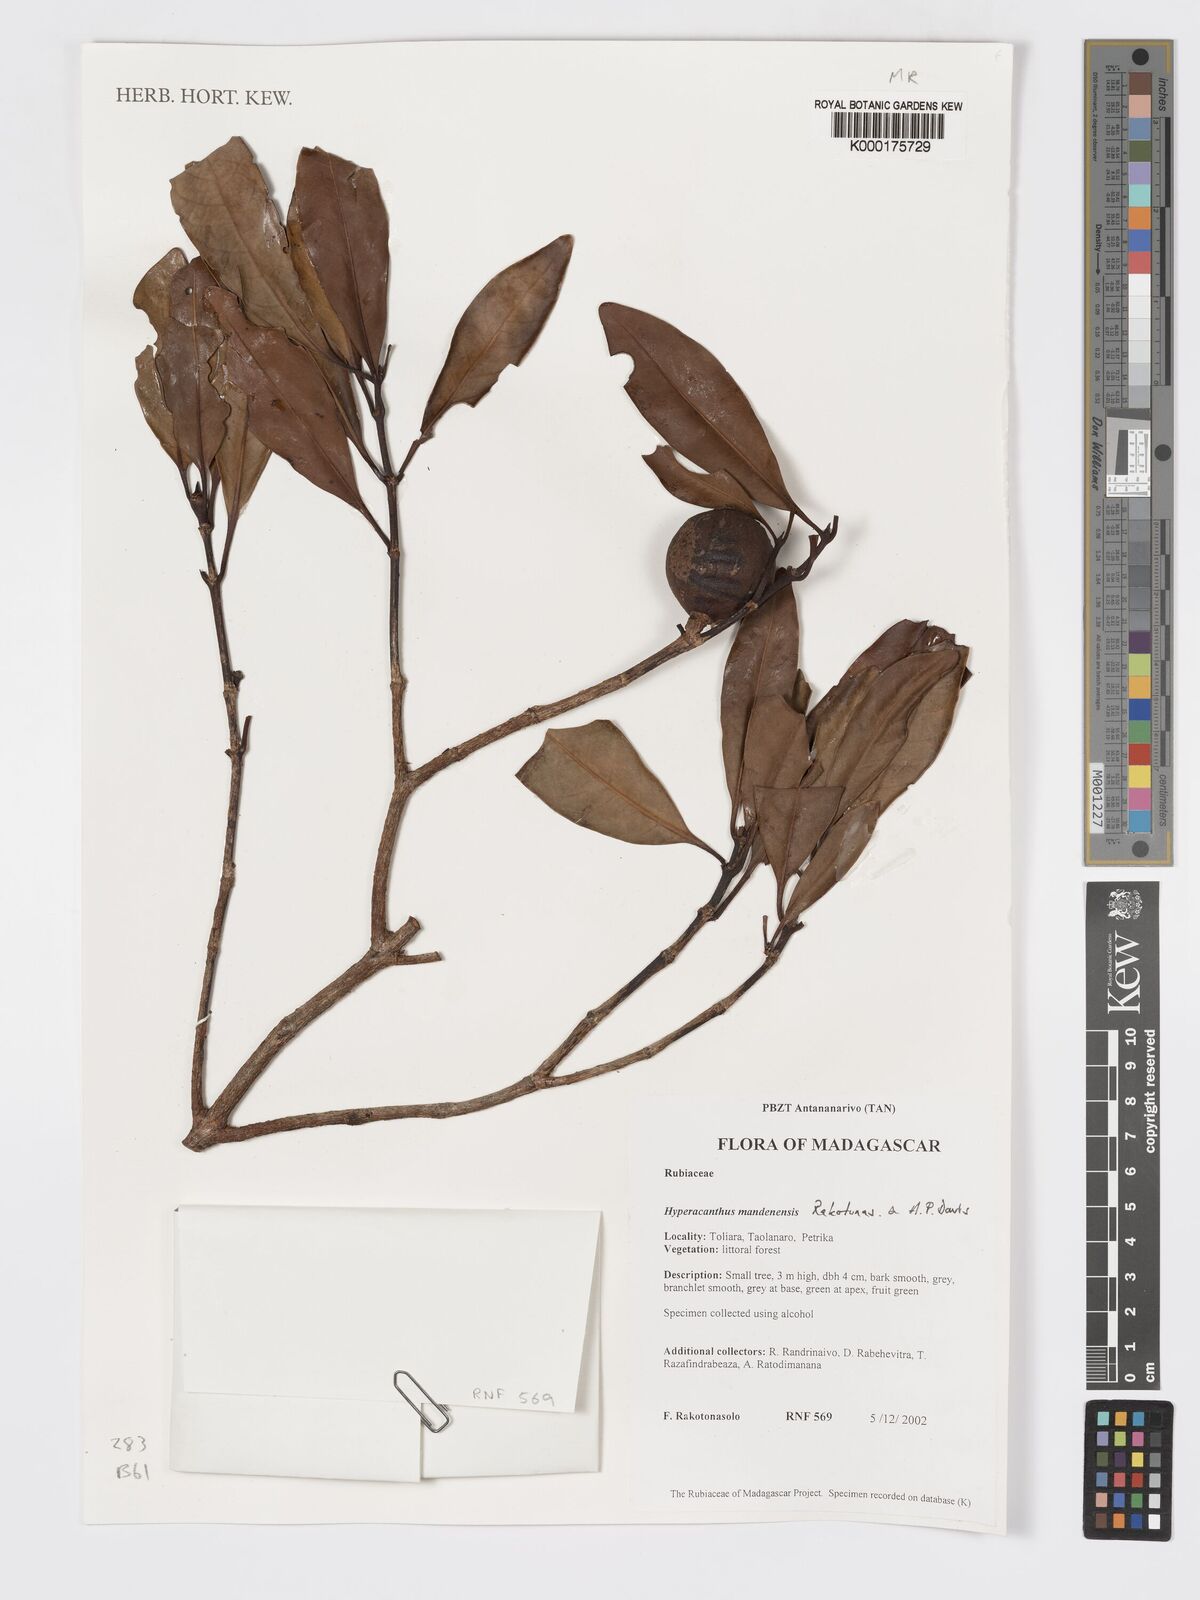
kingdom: Plantae
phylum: Tracheophyta
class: Magnoliopsida
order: Gentianales
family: Rubiaceae
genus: Hyperacanthus
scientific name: Hyperacanthus mandenensis
